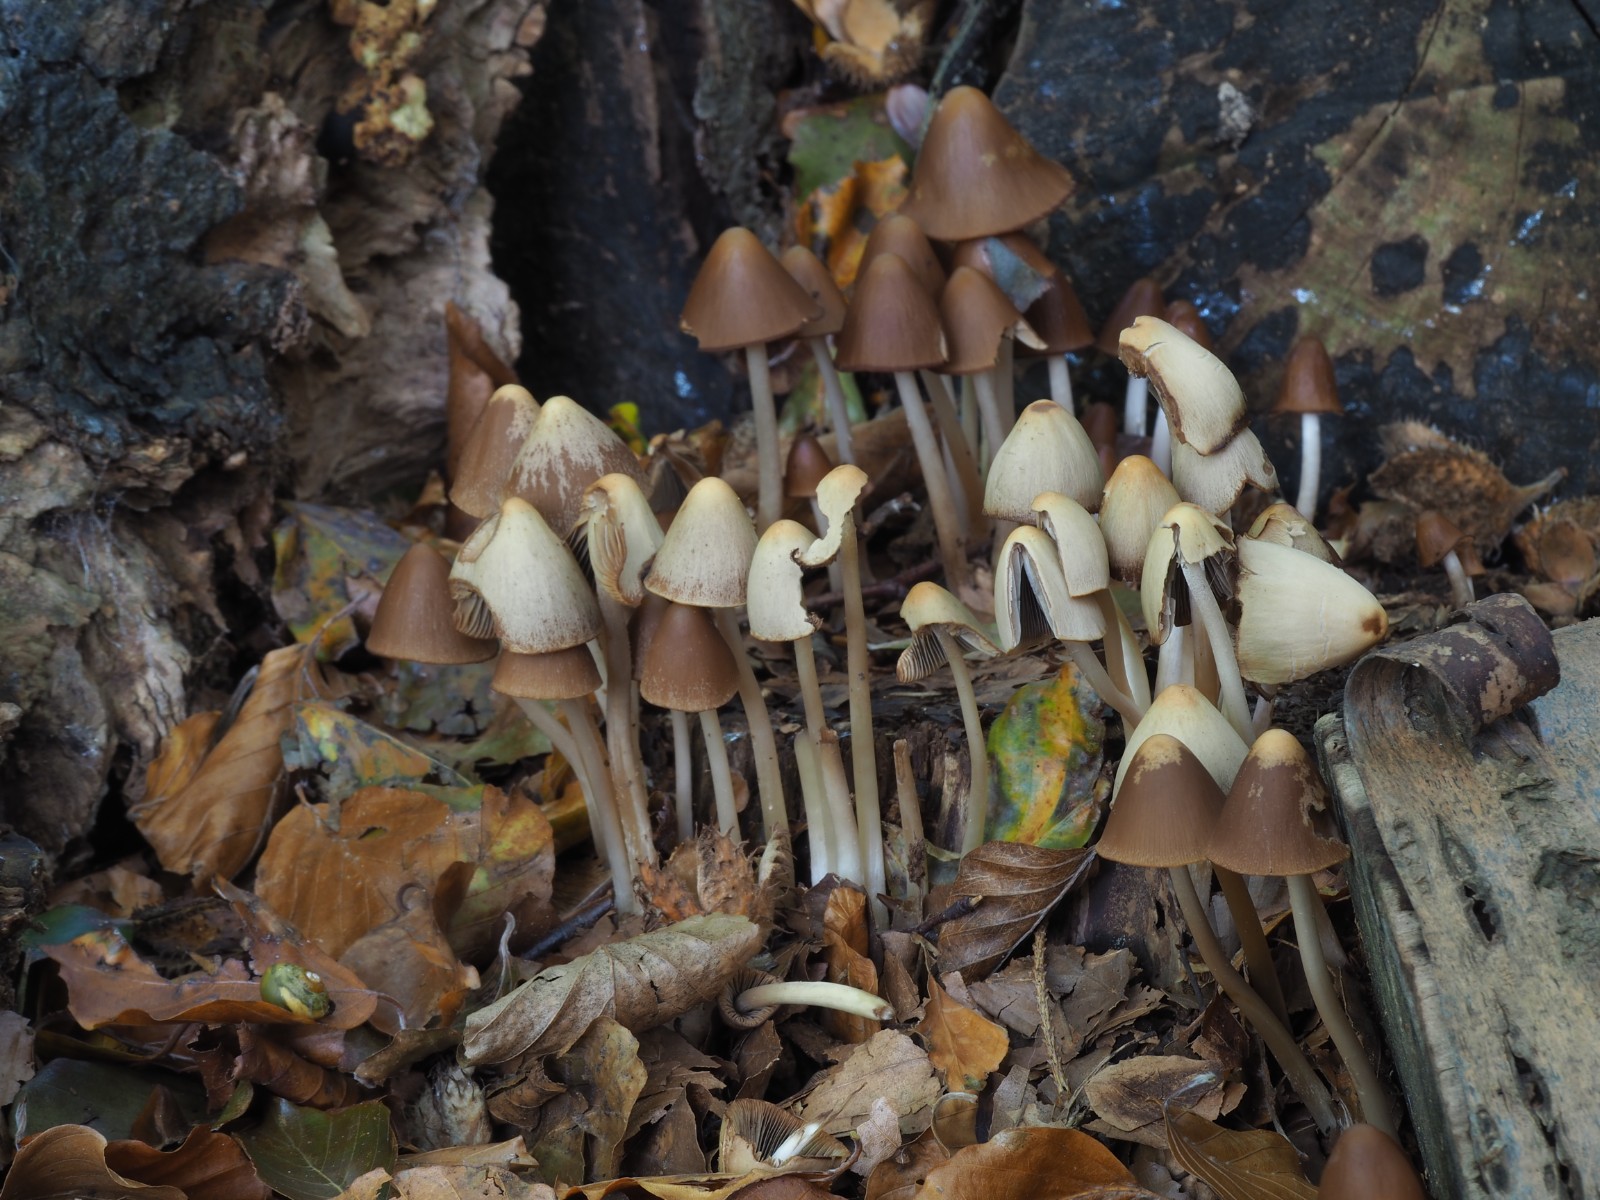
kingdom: Fungi
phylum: Basidiomycota
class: Agaricomycetes
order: Agaricales
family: Psathyrellaceae
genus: Parasola
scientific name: Parasola conopilea
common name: kegle-hjulhat
